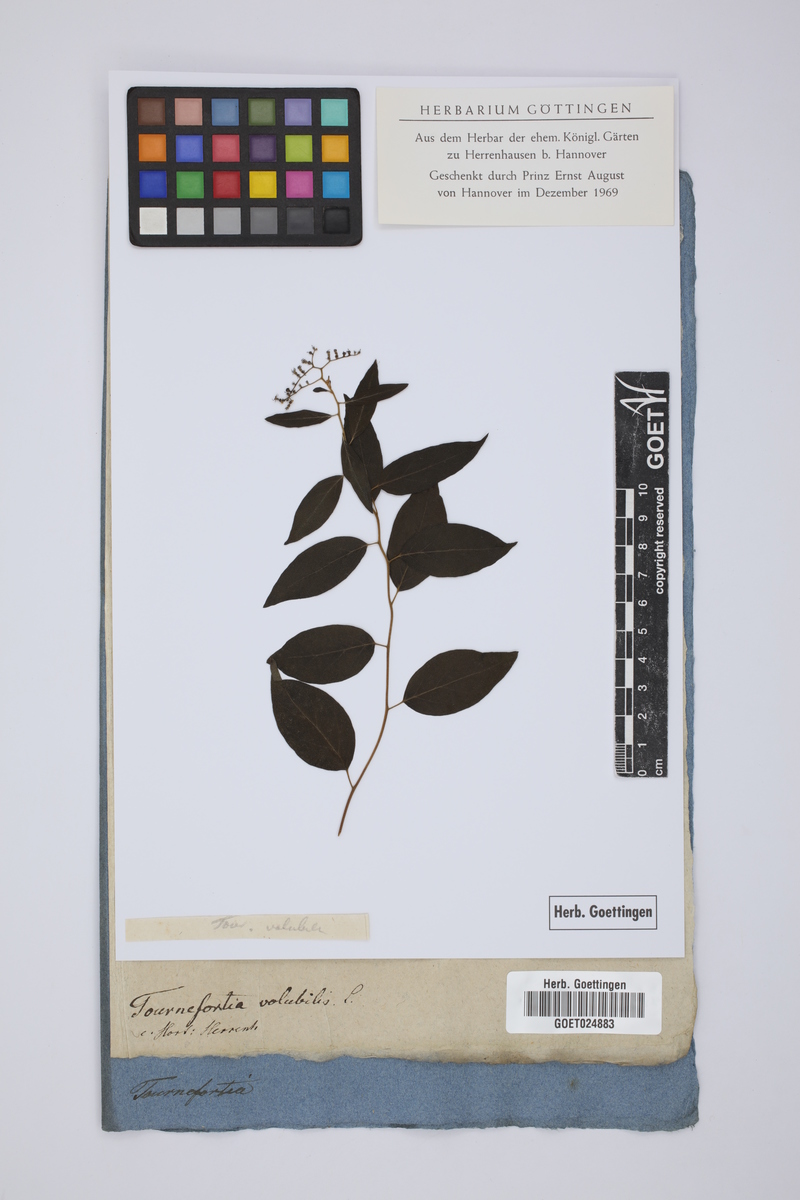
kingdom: Plantae
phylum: Tracheophyta
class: Magnoliopsida
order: Boraginales
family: Heliotropiaceae
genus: Myriopus
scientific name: Myriopus volubilis
